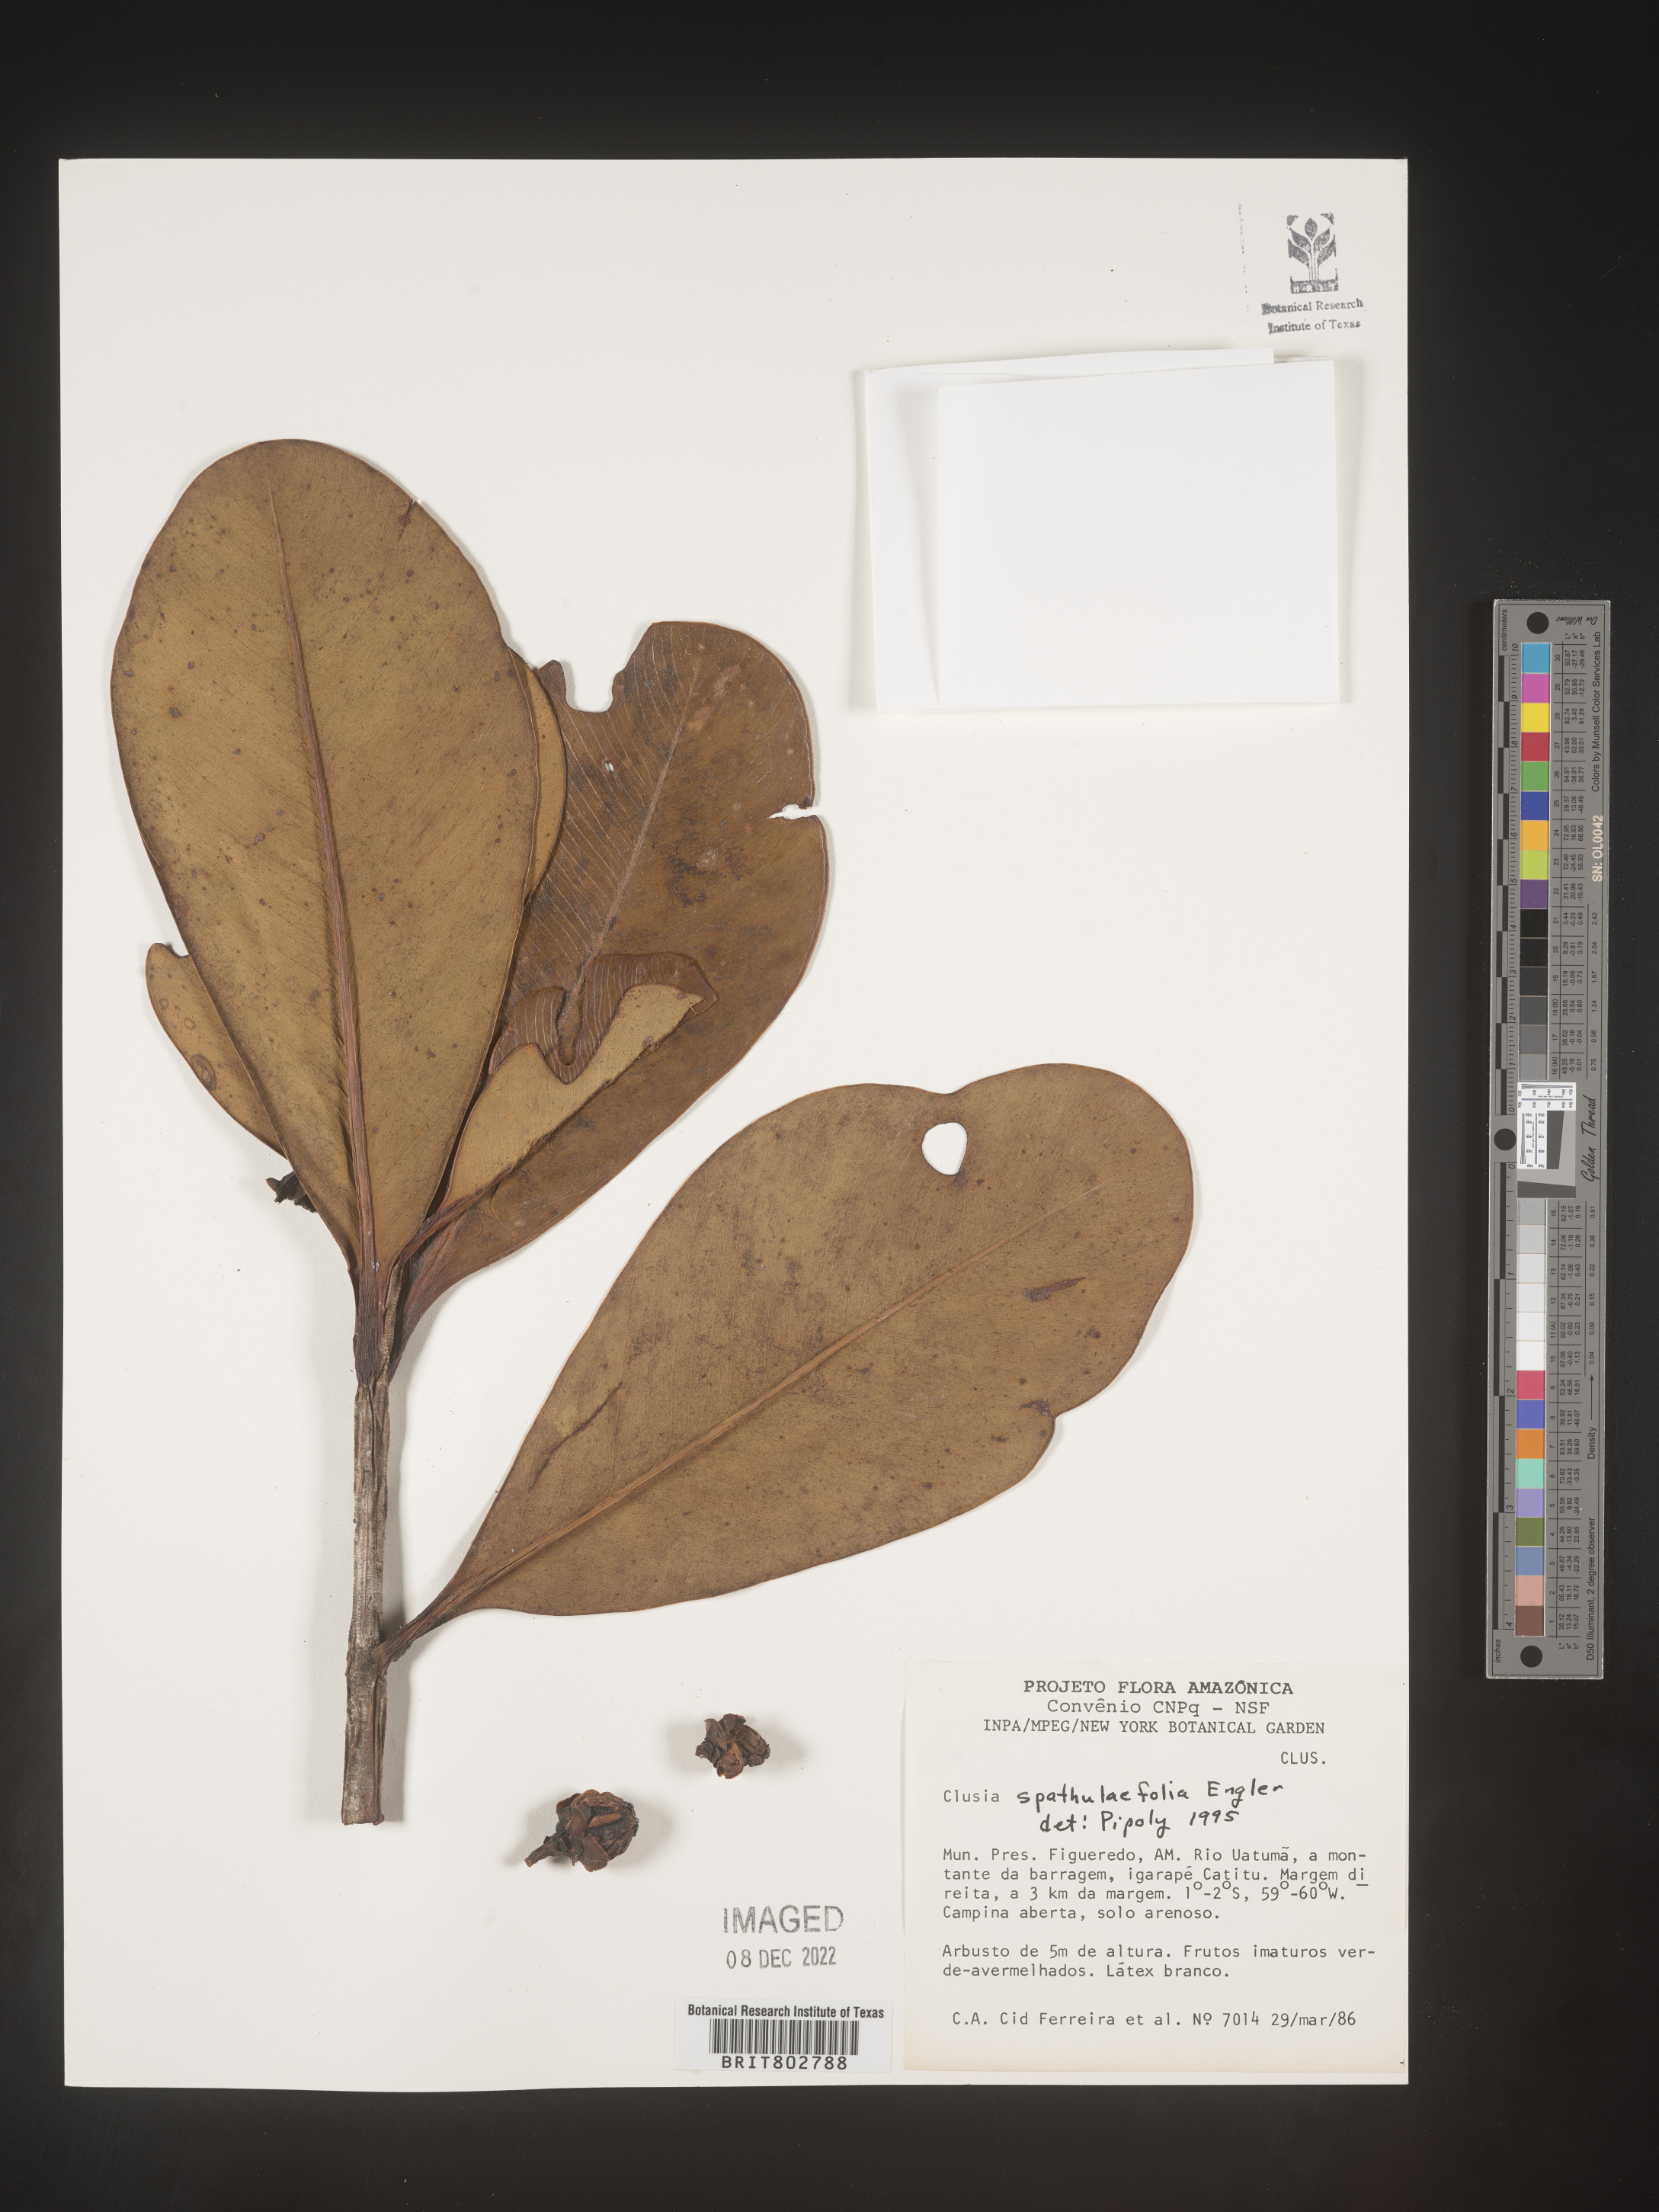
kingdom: Plantae
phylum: Tracheophyta
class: Magnoliopsida
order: Malpighiales
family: Clusiaceae
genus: Clusia
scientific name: Clusia spathulifolia
